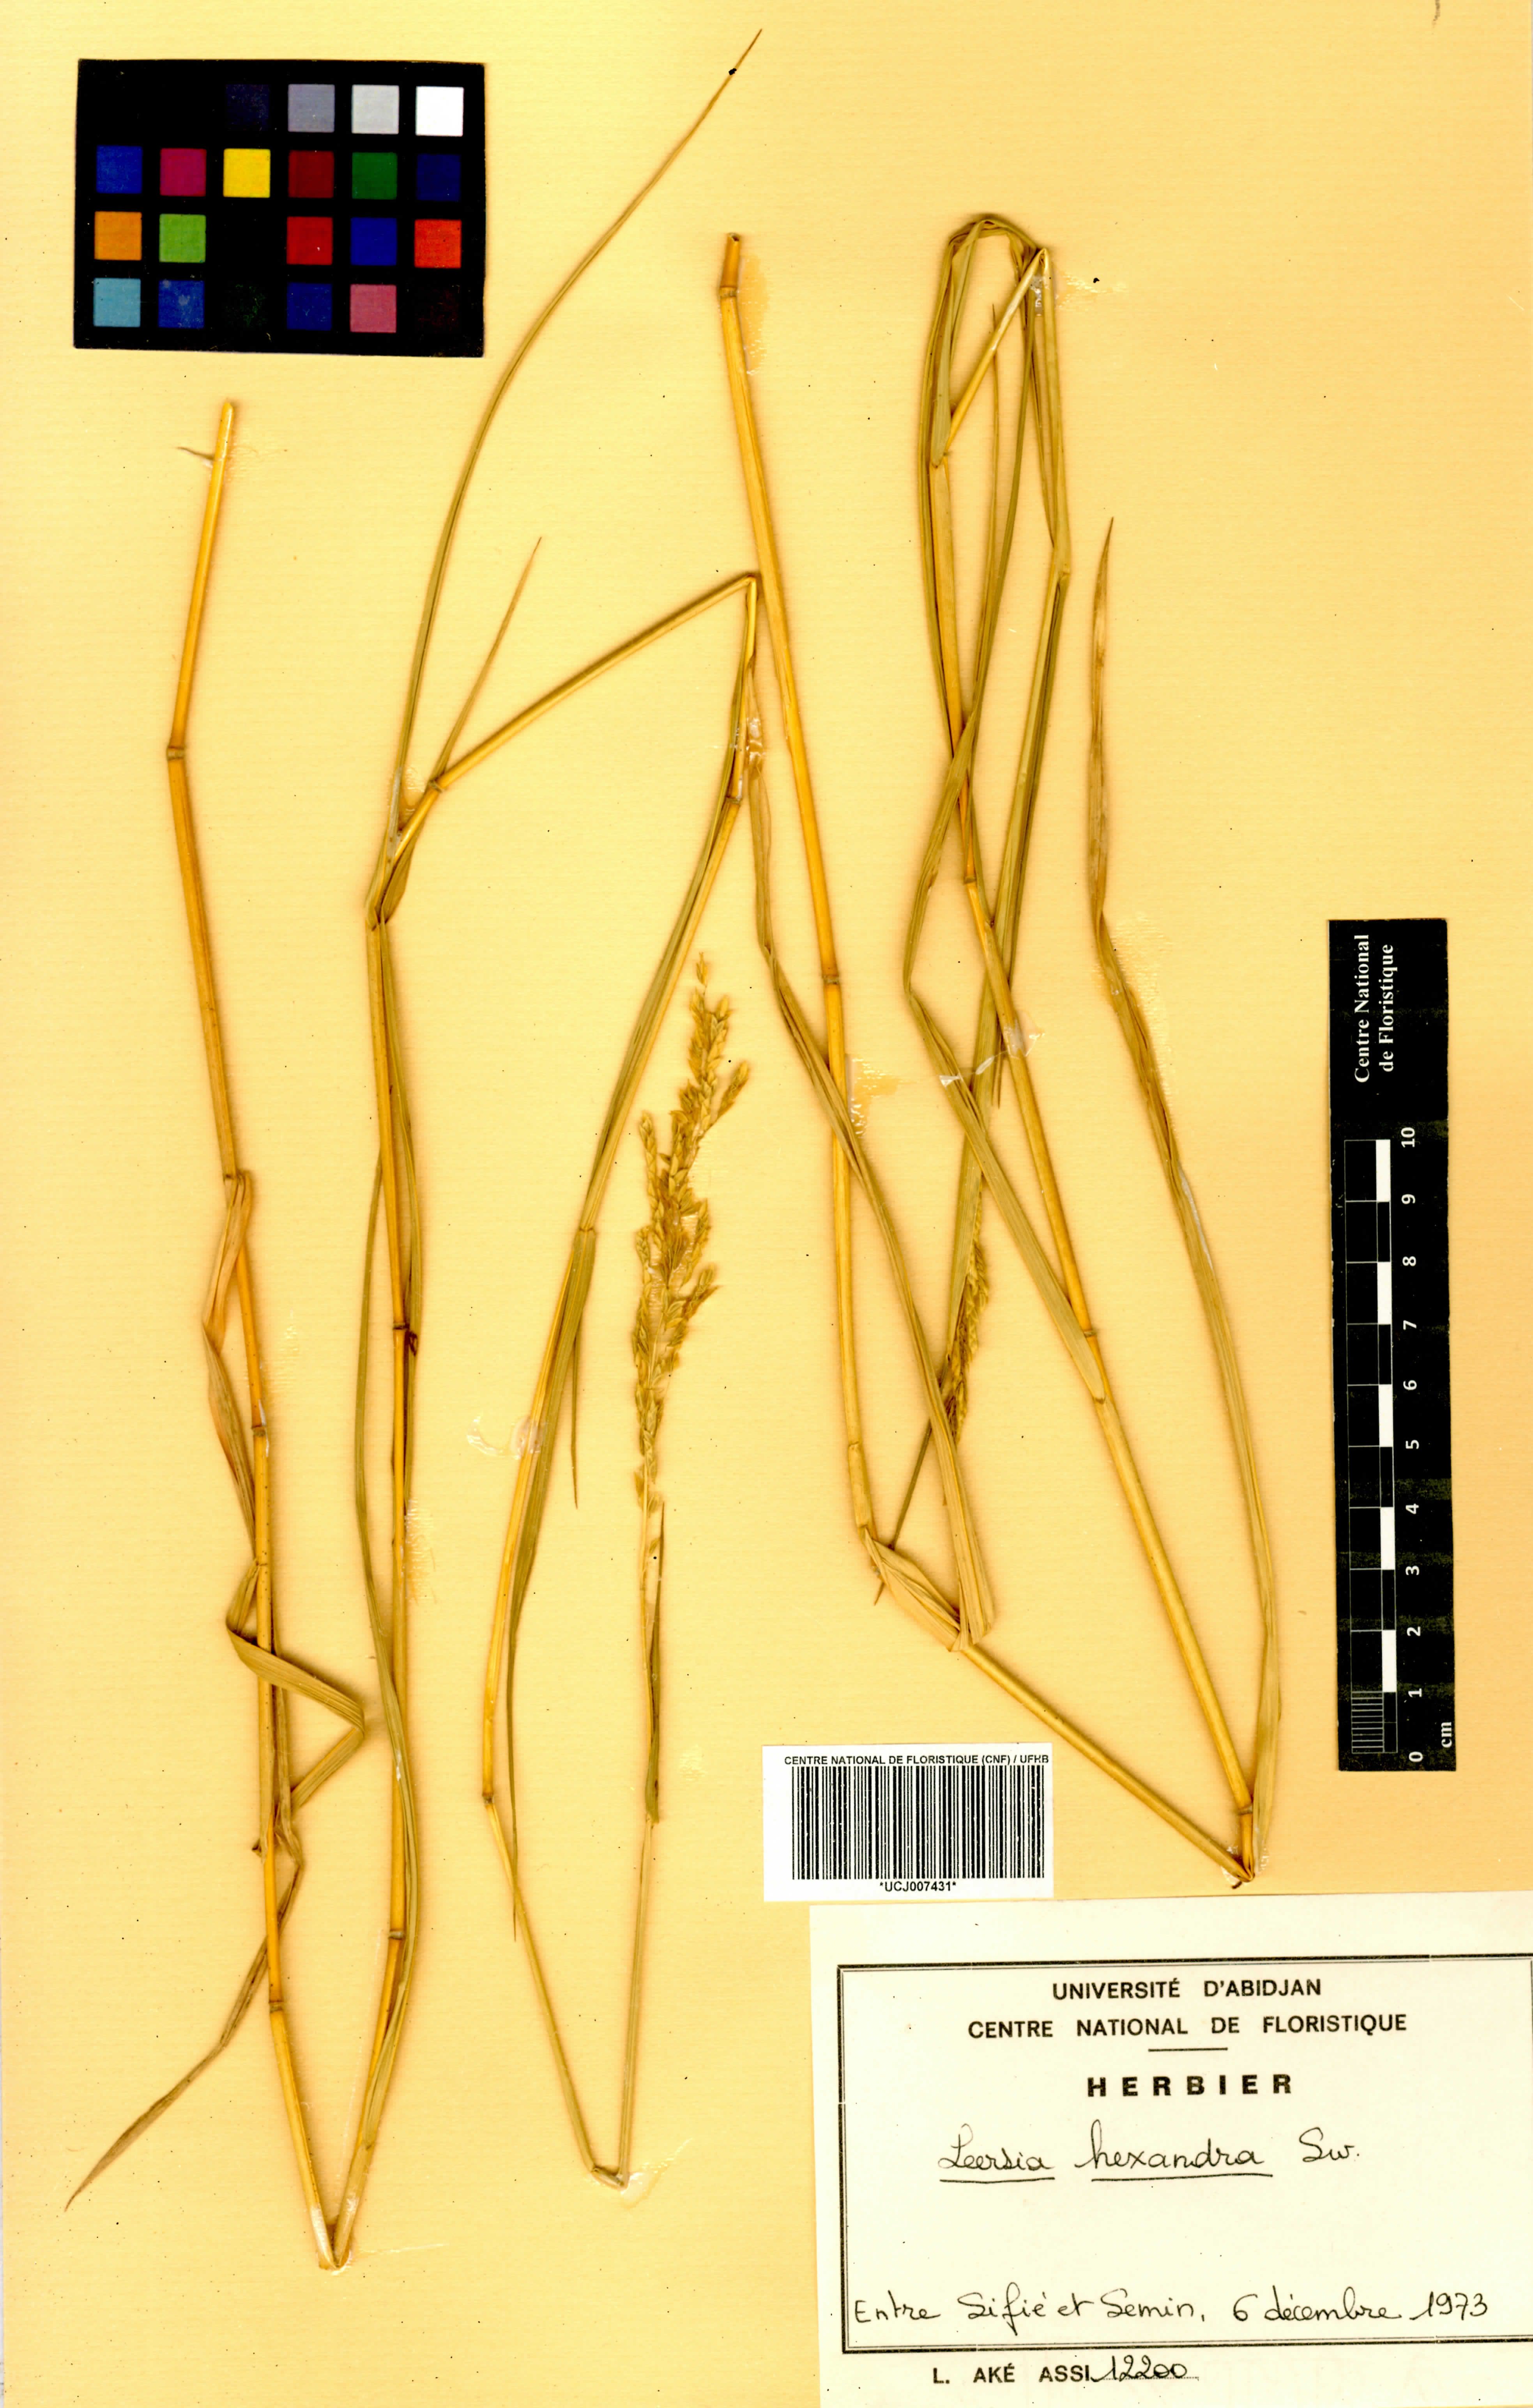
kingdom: Plantae
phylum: Tracheophyta
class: Liliopsida
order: Poales
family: Poaceae
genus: Leersia
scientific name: Leersia hexandra
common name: Southern cut grass
